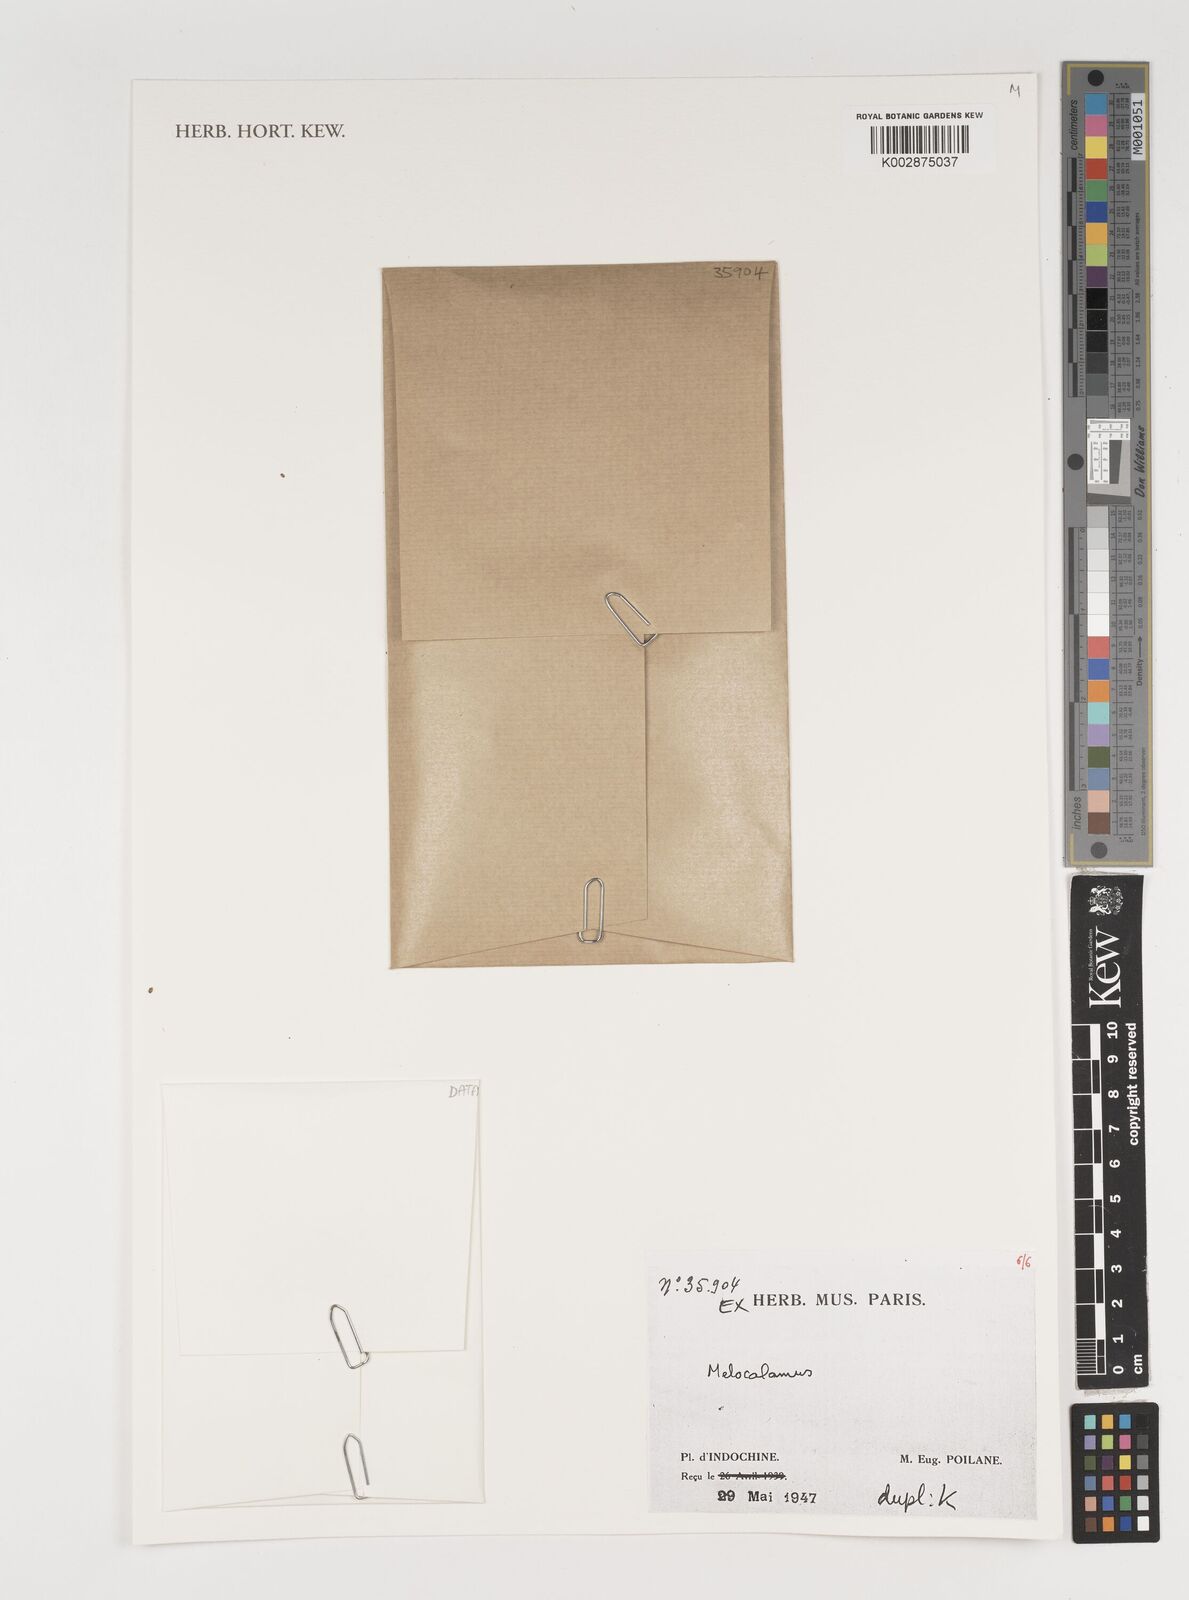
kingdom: Plantae
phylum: Tracheophyta
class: Liliopsida
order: Poales
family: Poaceae
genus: Melocalamus
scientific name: Melocalamus
